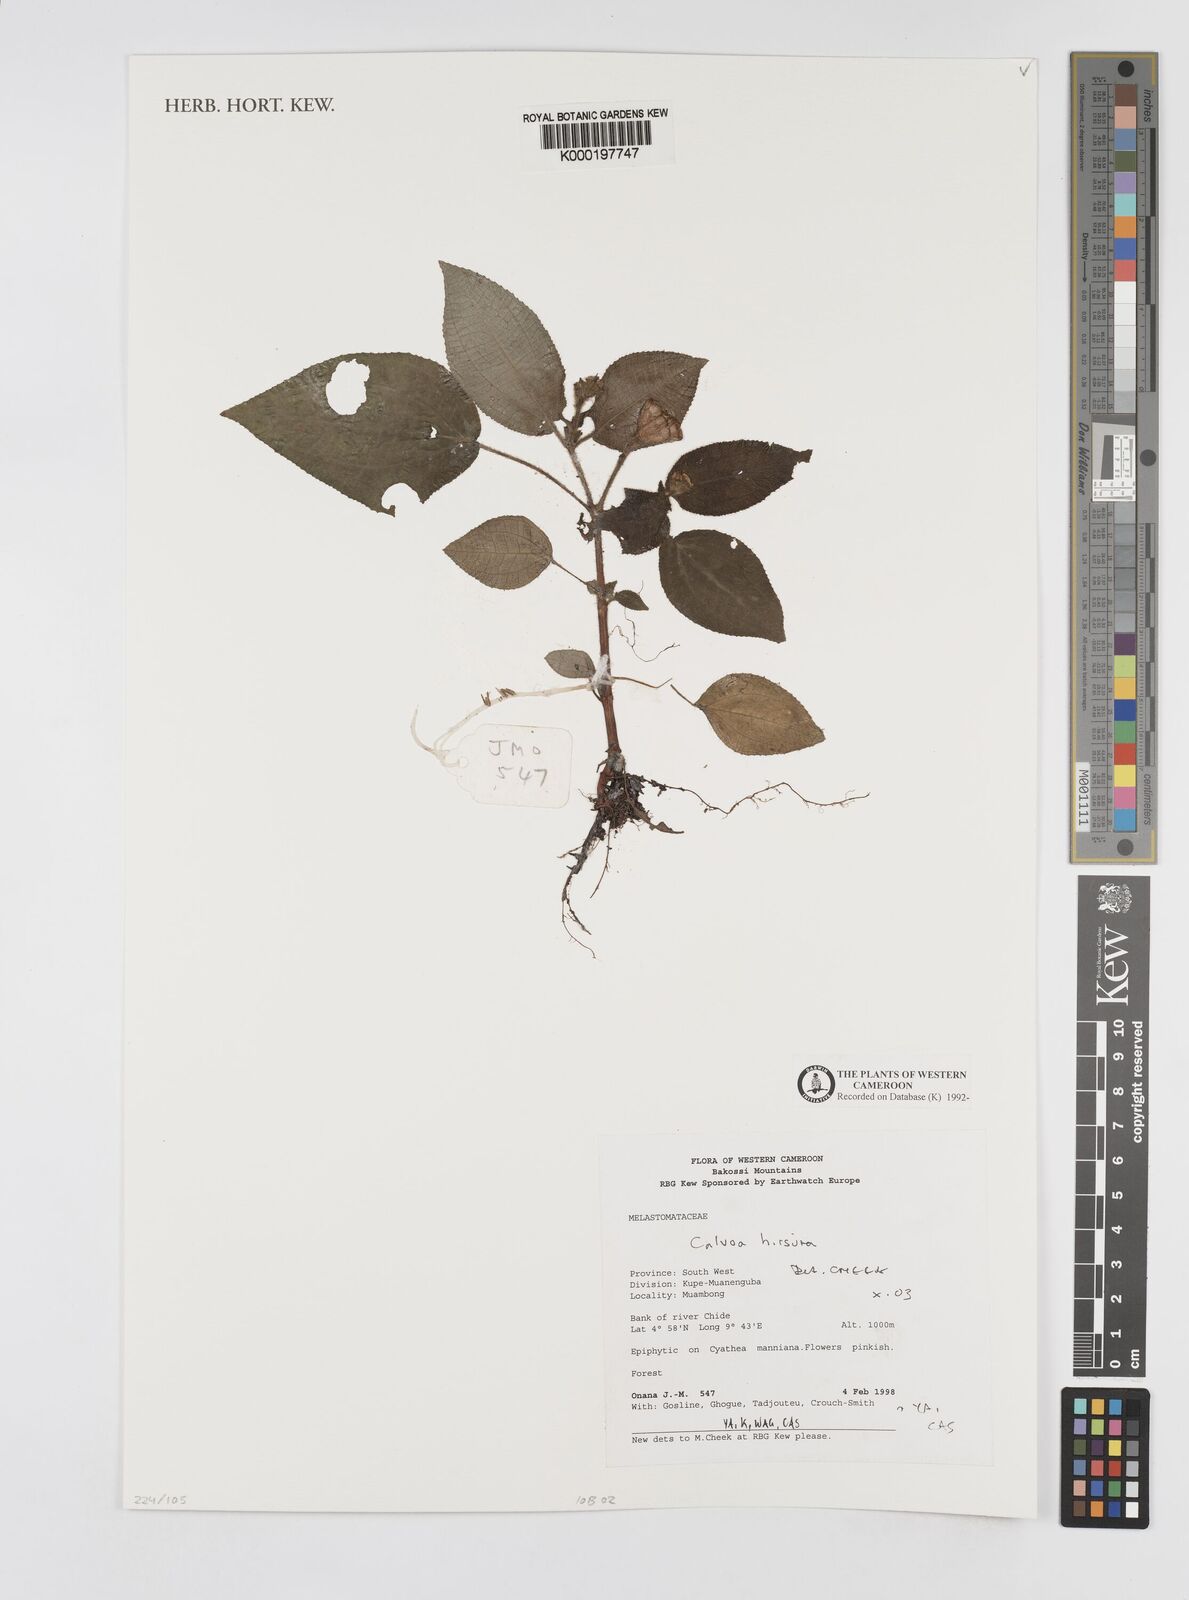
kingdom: Plantae
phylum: Tracheophyta
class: Magnoliopsida
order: Myrtales
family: Melastomataceae
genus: Calvoa
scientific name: Calvoa
